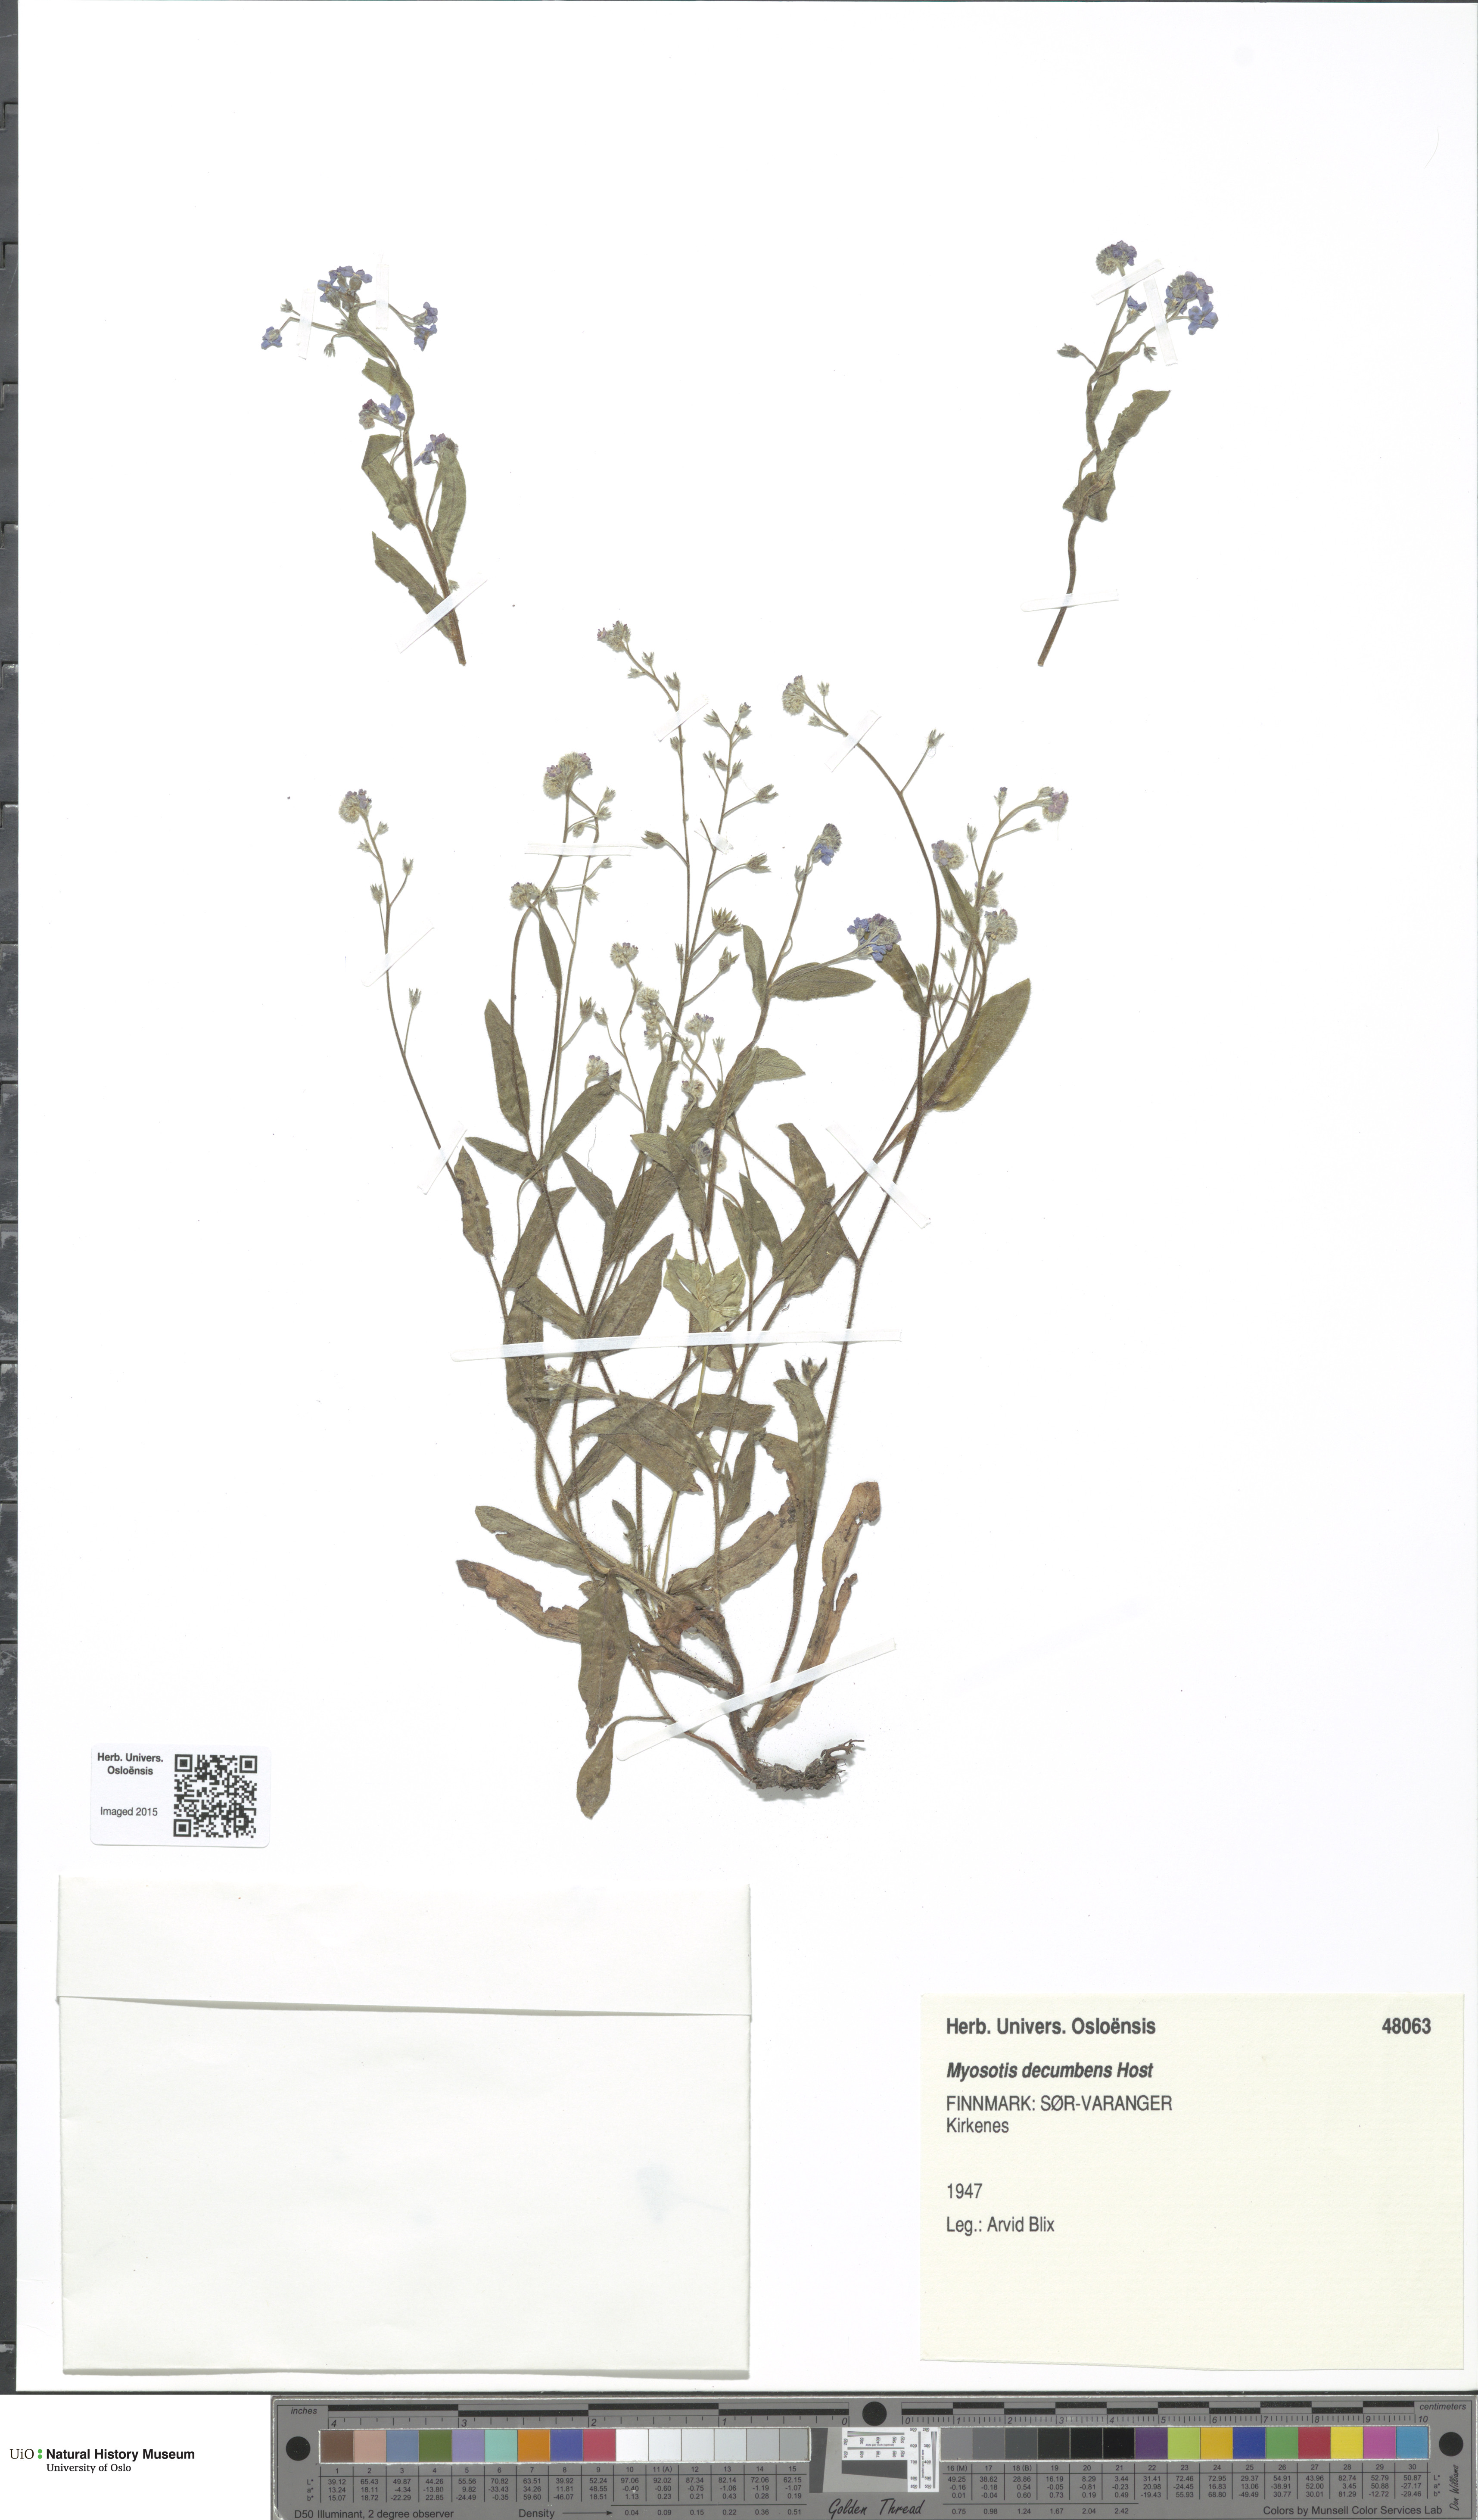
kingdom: Plantae
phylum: Tracheophyta
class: Magnoliopsida
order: Boraginales
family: Boraginaceae
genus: Myosotis
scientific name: Myosotis decumbens
